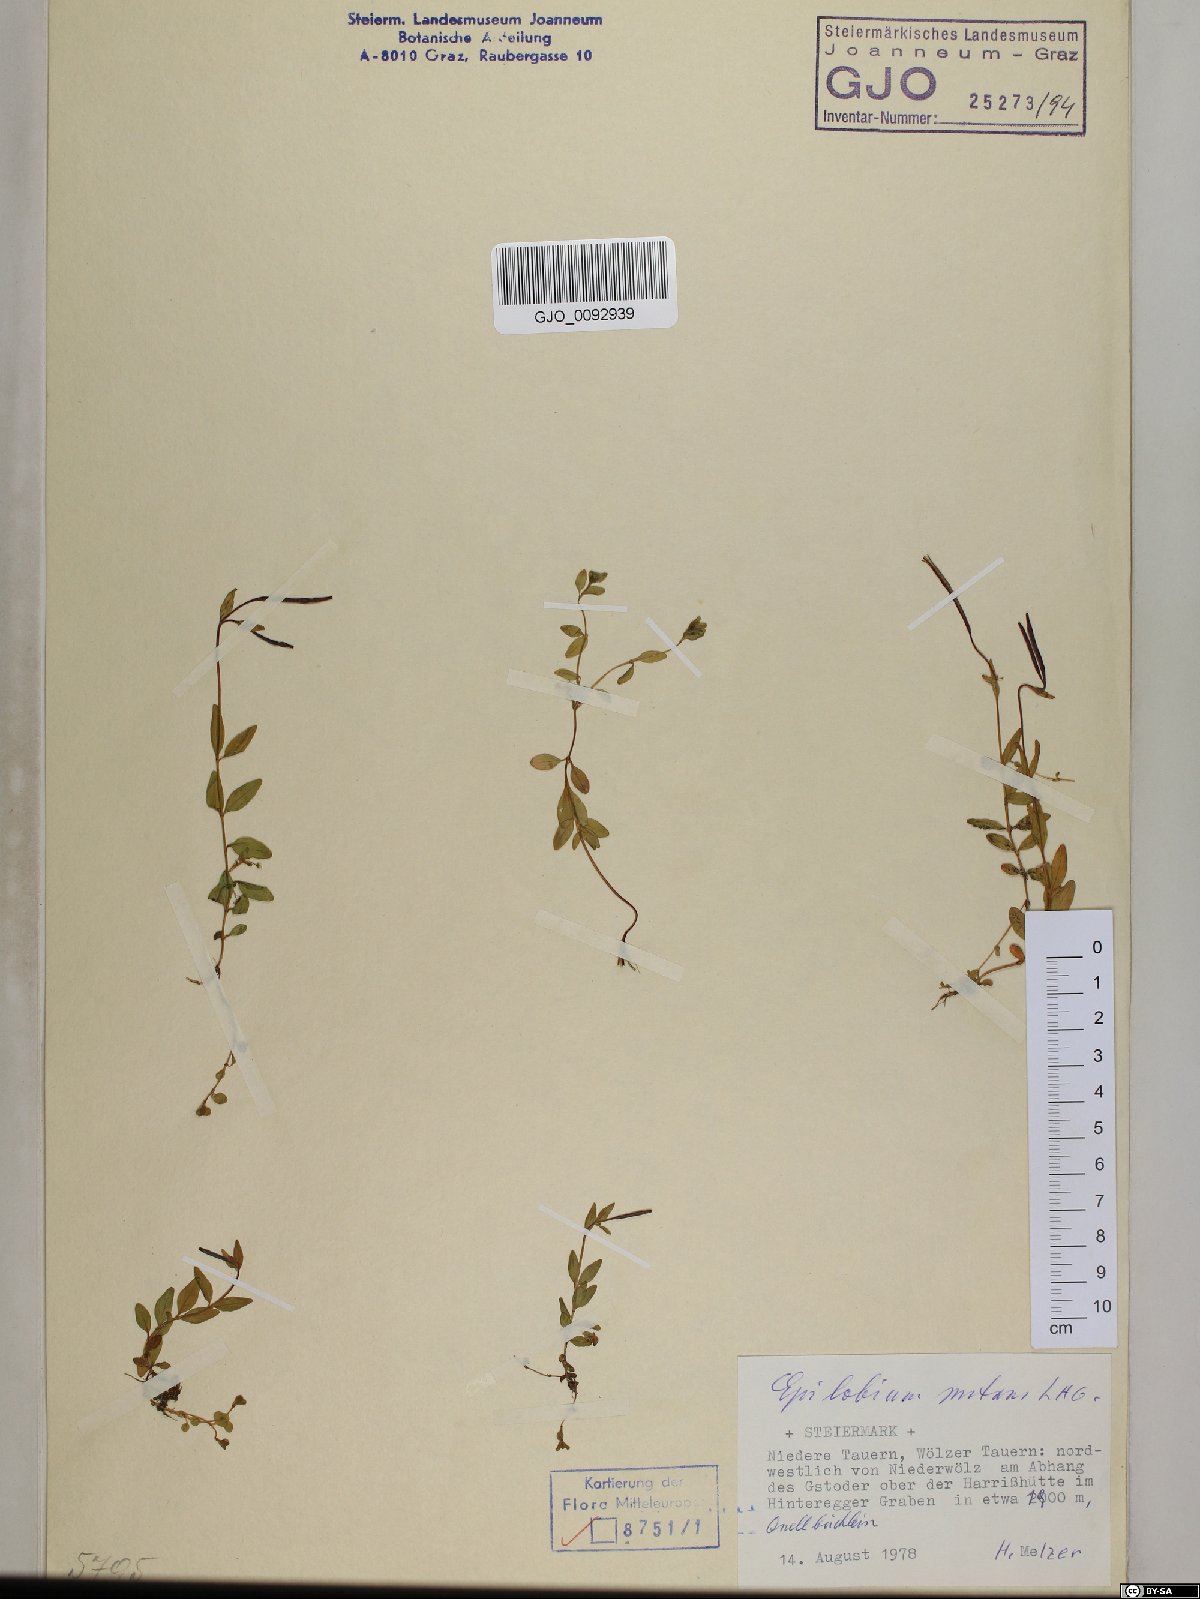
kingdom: Plantae
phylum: Tracheophyta
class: Magnoliopsida
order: Myrtales
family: Onagraceae
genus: Epilobium
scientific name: Epilobium nutans
